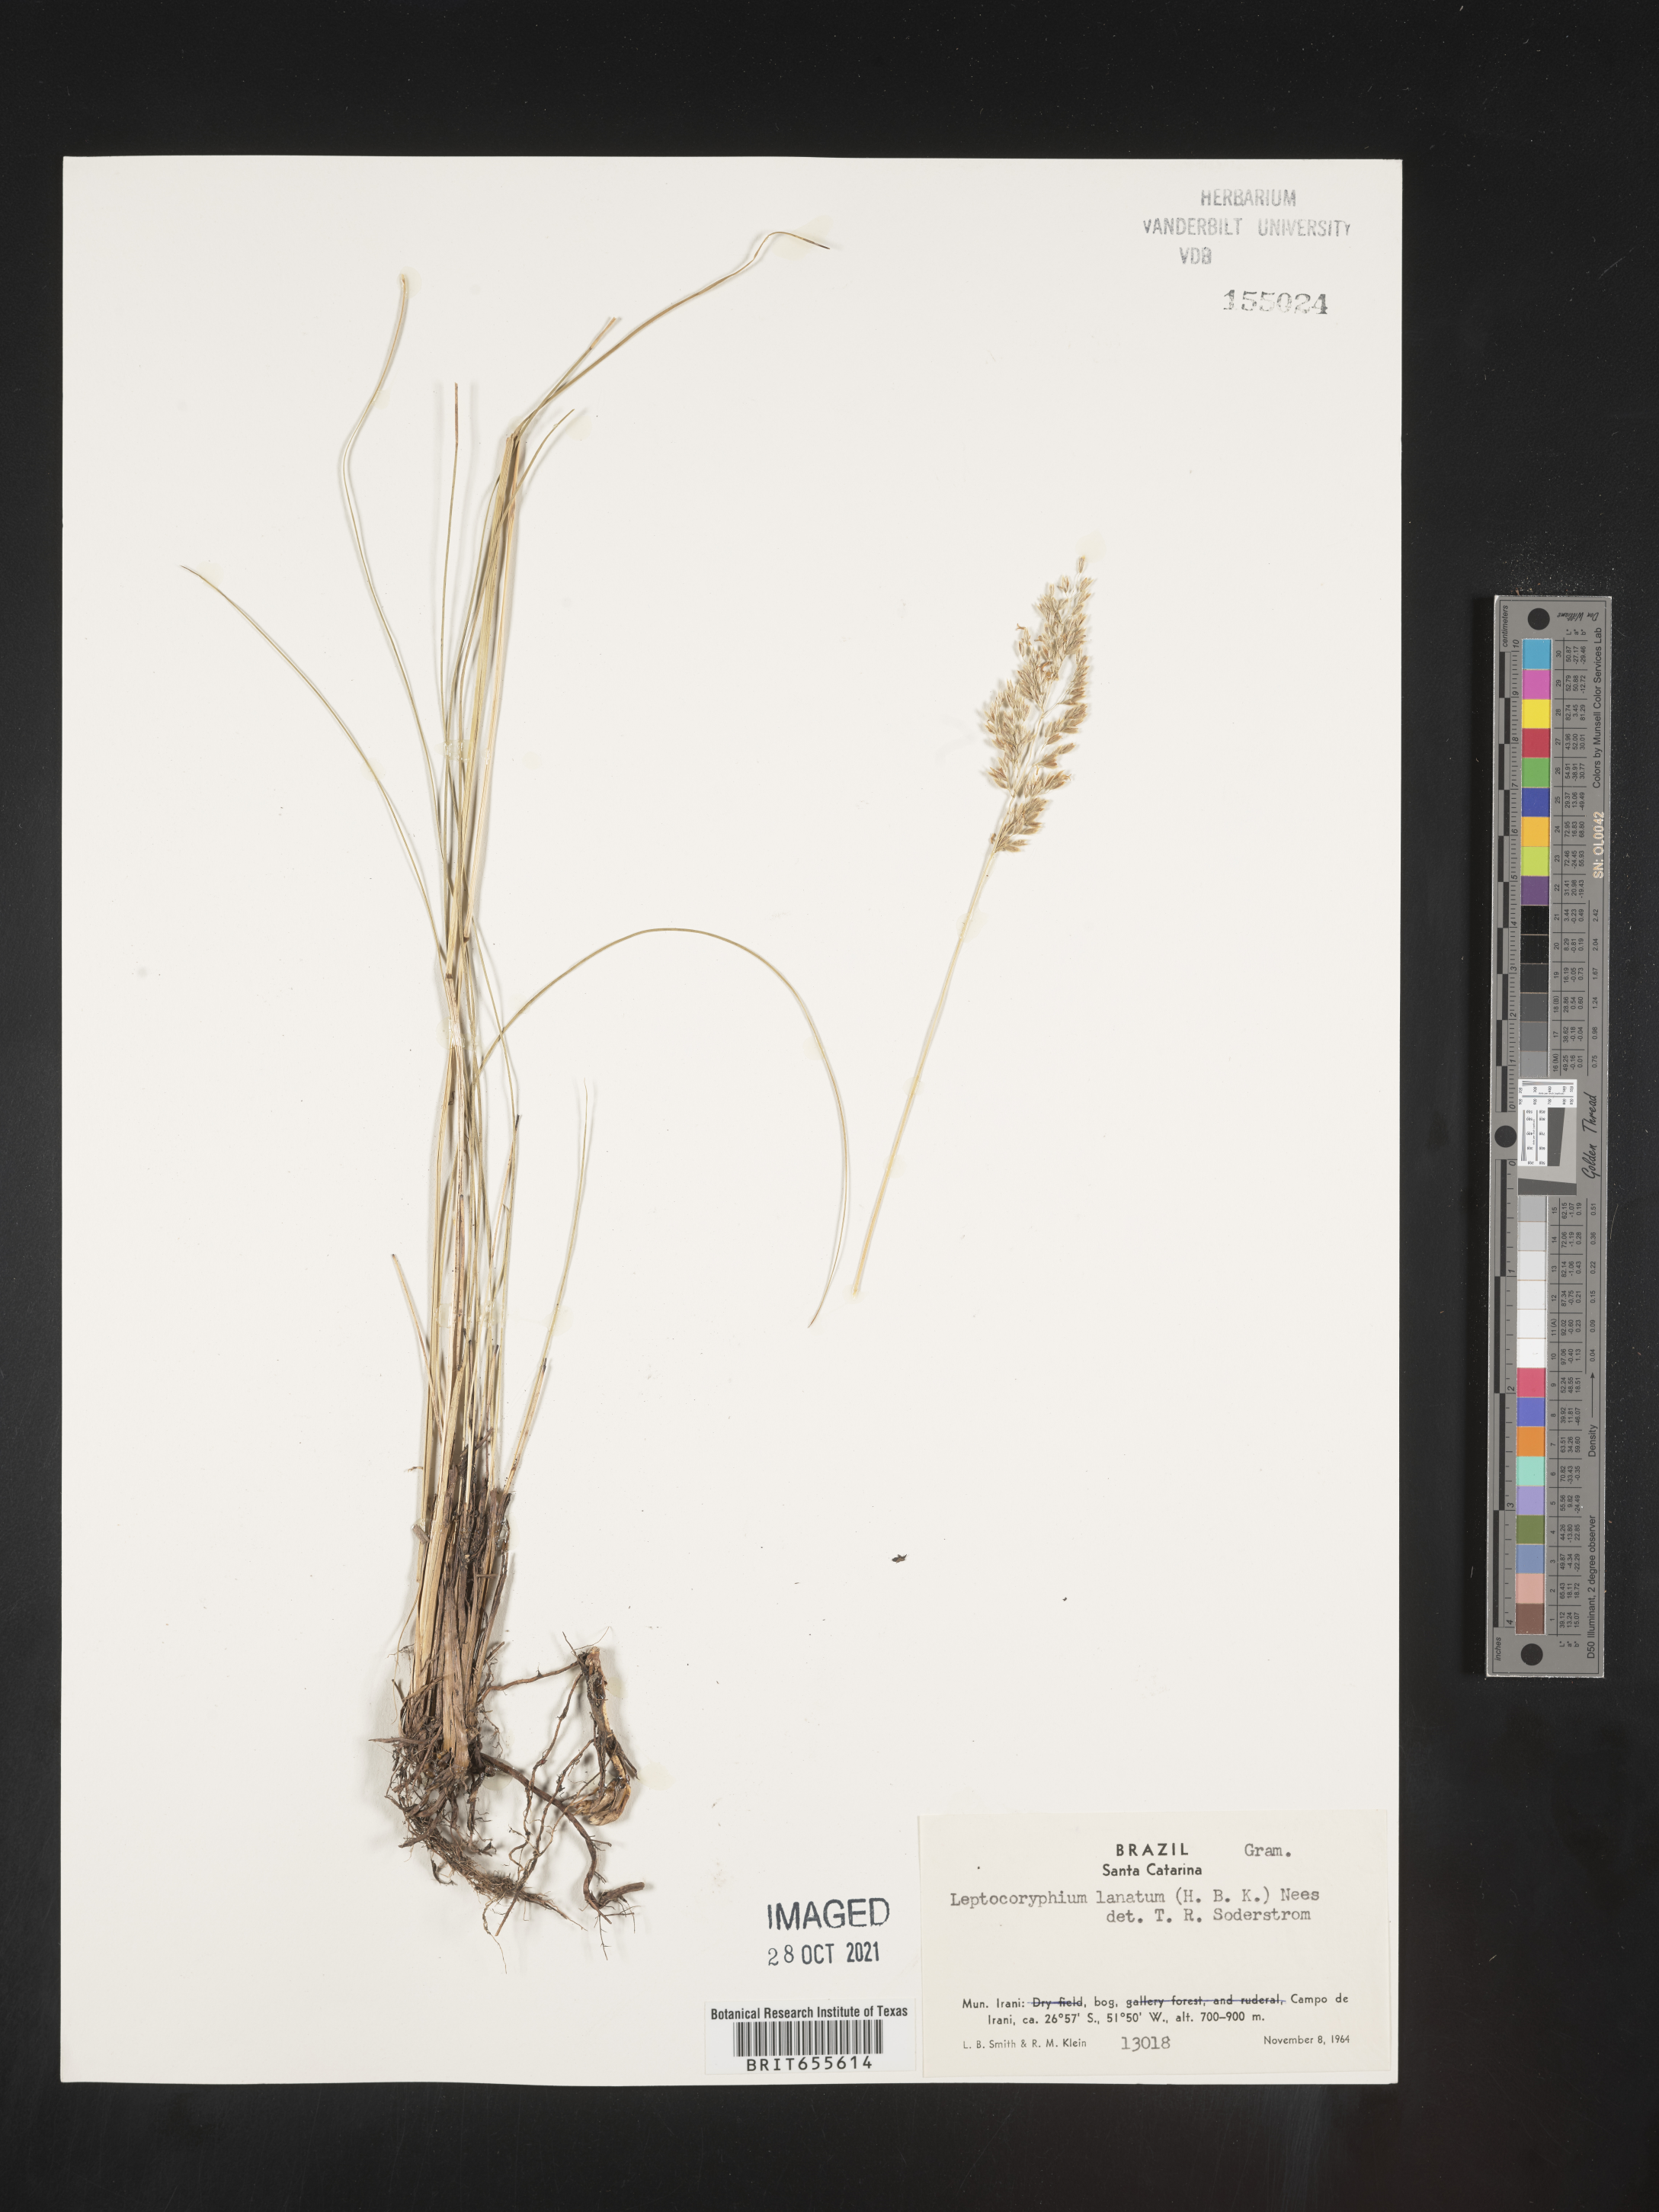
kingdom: Plantae
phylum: Tracheophyta
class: Liliopsida
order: Poales
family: Poaceae
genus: Anthenantia
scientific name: Anthenantia
